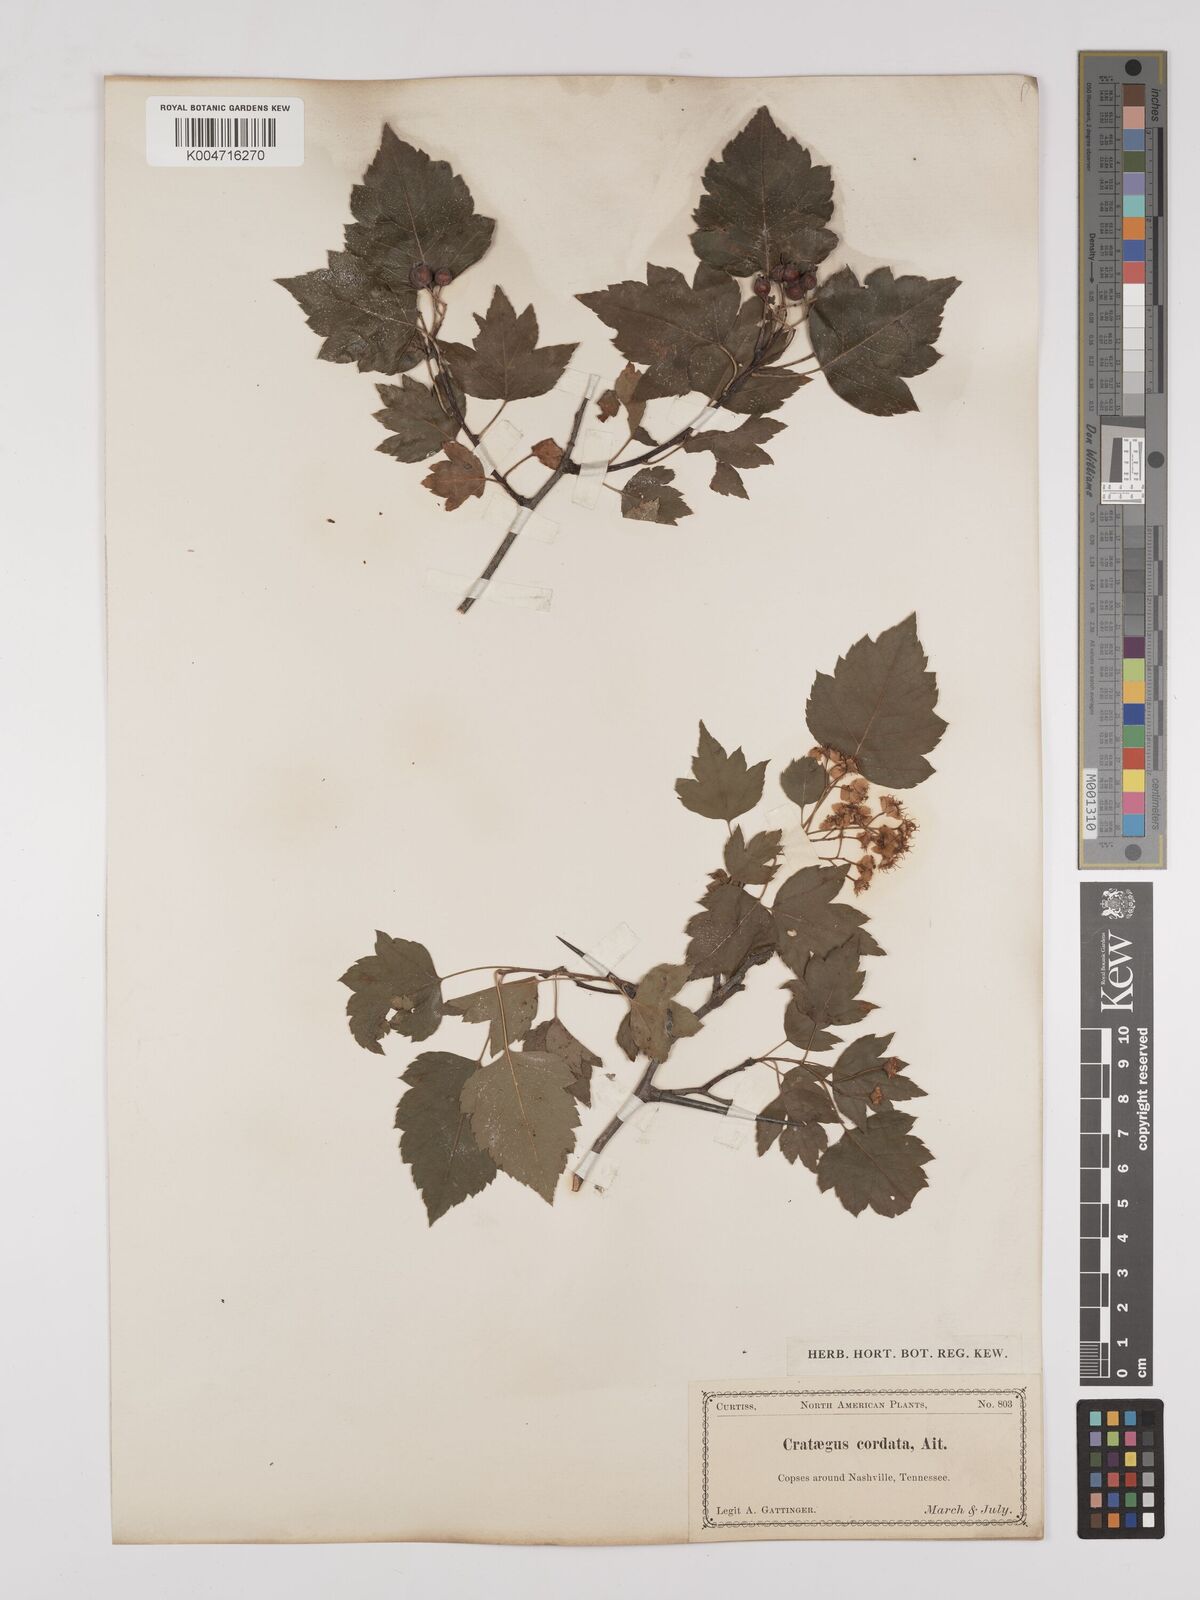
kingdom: Plantae
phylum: Tracheophyta
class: Magnoliopsida
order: Rosales
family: Rosaceae
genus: Crataegus
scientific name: Crataegus phaenopyrum
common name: Washington hawthorn
